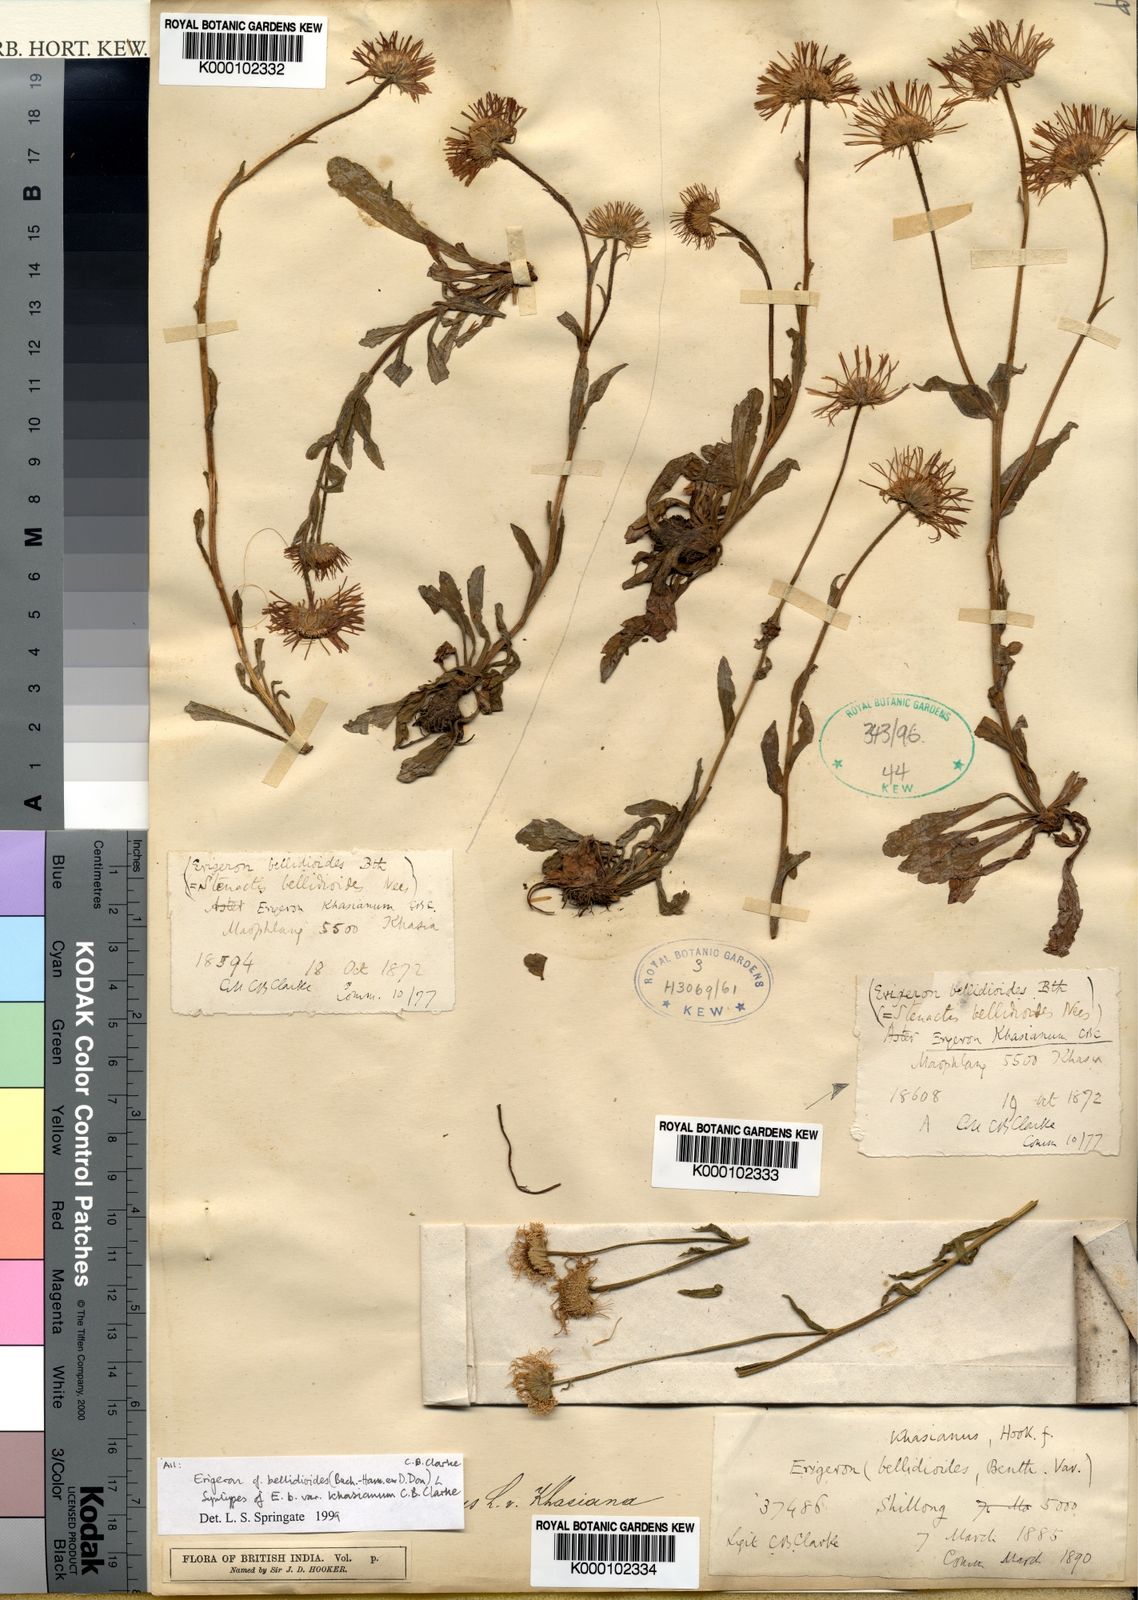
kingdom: Plantae
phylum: Tracheophyta
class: Magnoliopsida
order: Asterales
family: Asteraceae
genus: Erigeron
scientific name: Erigeron alpinus
